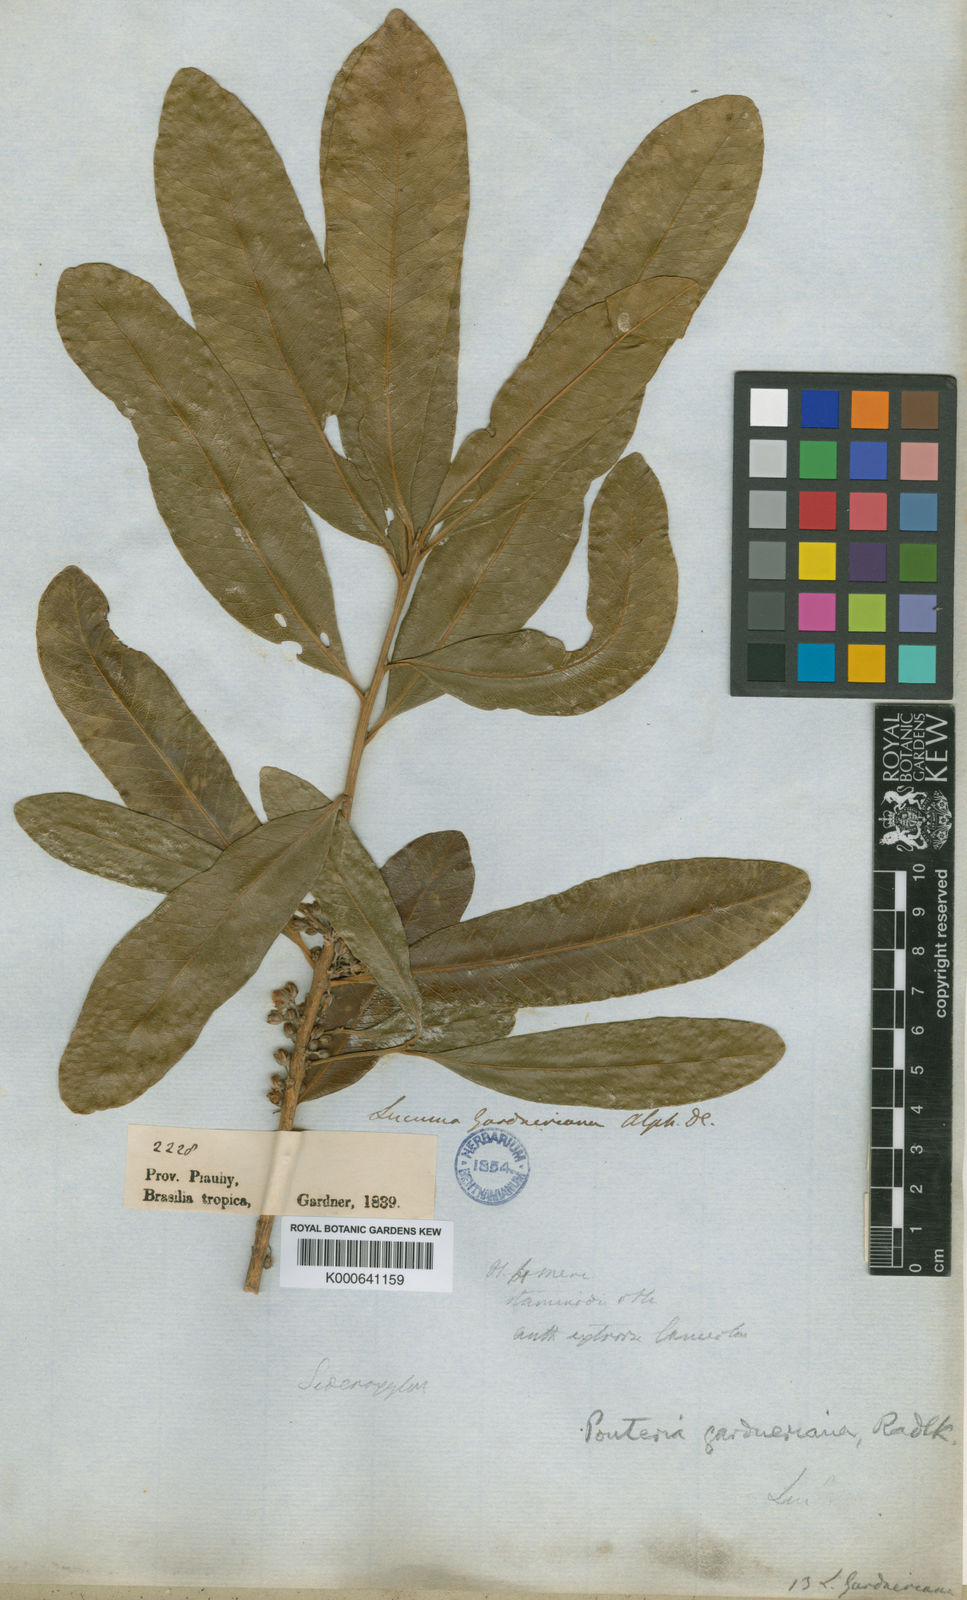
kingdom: Plantae
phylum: Tracheophyta
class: Magnoliopsida
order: Ericales
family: Sapotaceae
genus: Pouteria
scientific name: Pouteria gardneriana
